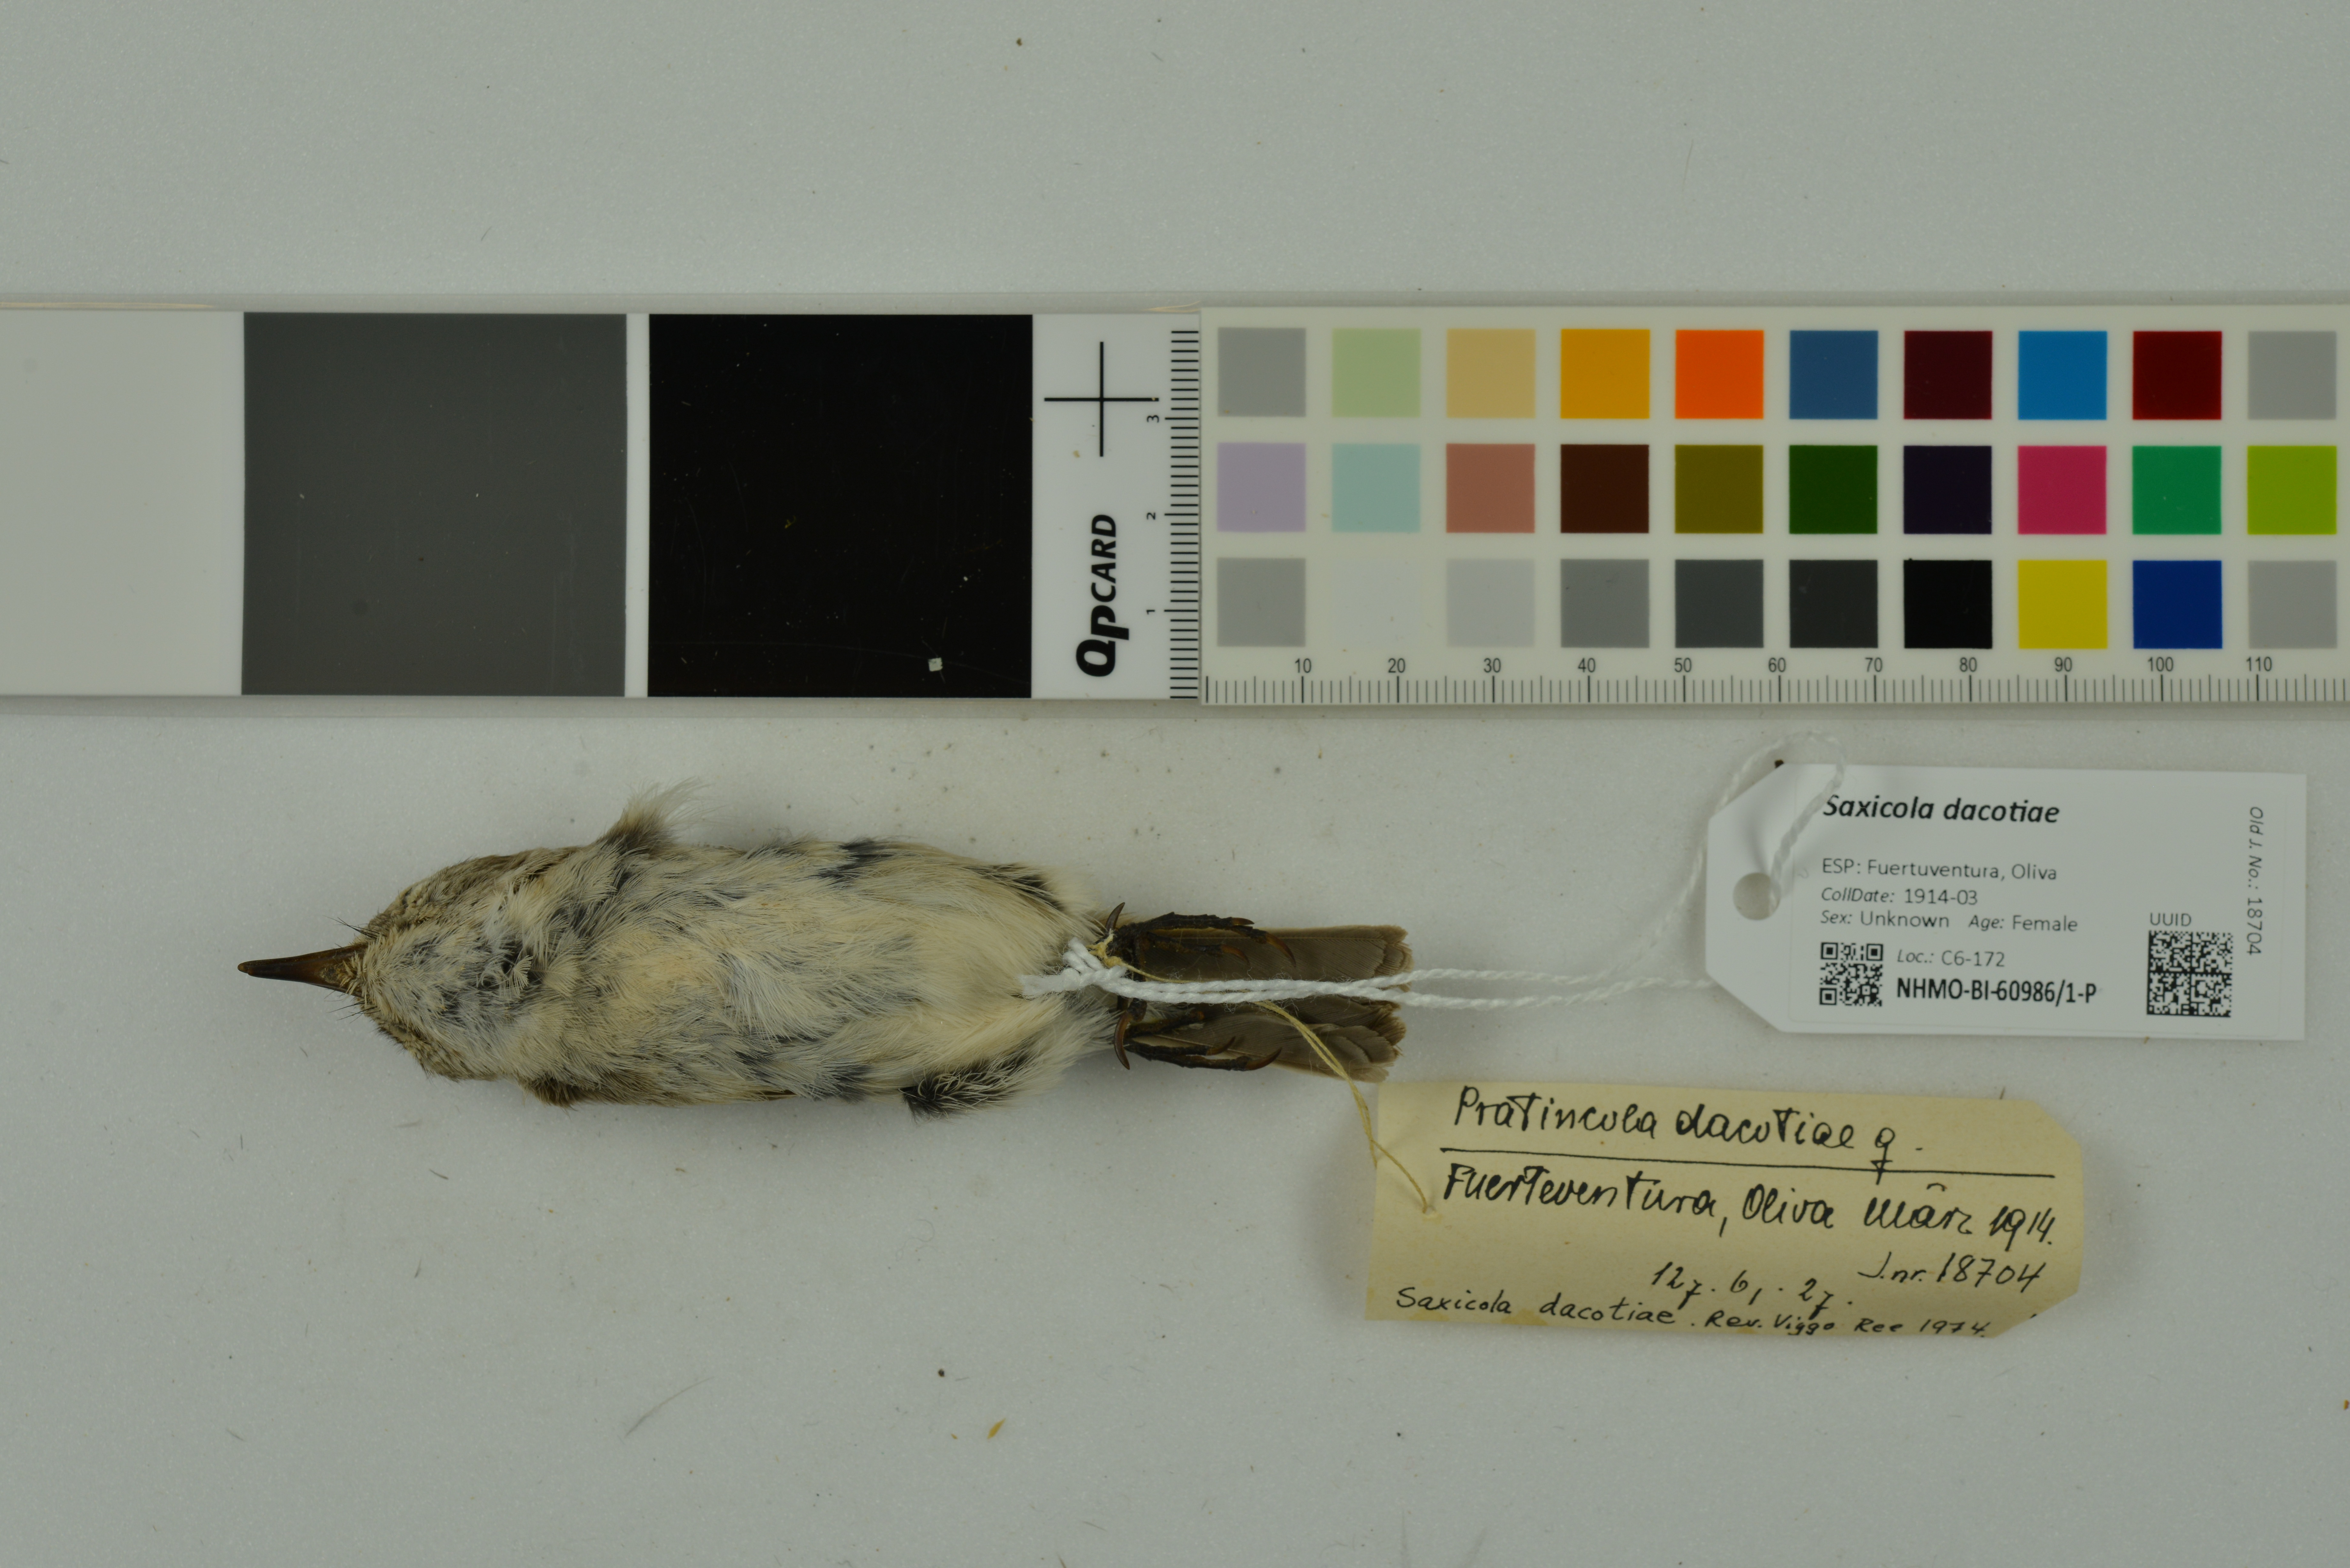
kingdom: Animalia
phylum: Chordata
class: Aves
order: Passeriformes
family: Muscicapidae
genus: Saxicola
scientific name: Saxicola dacotiae
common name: Canary islands stonechat
